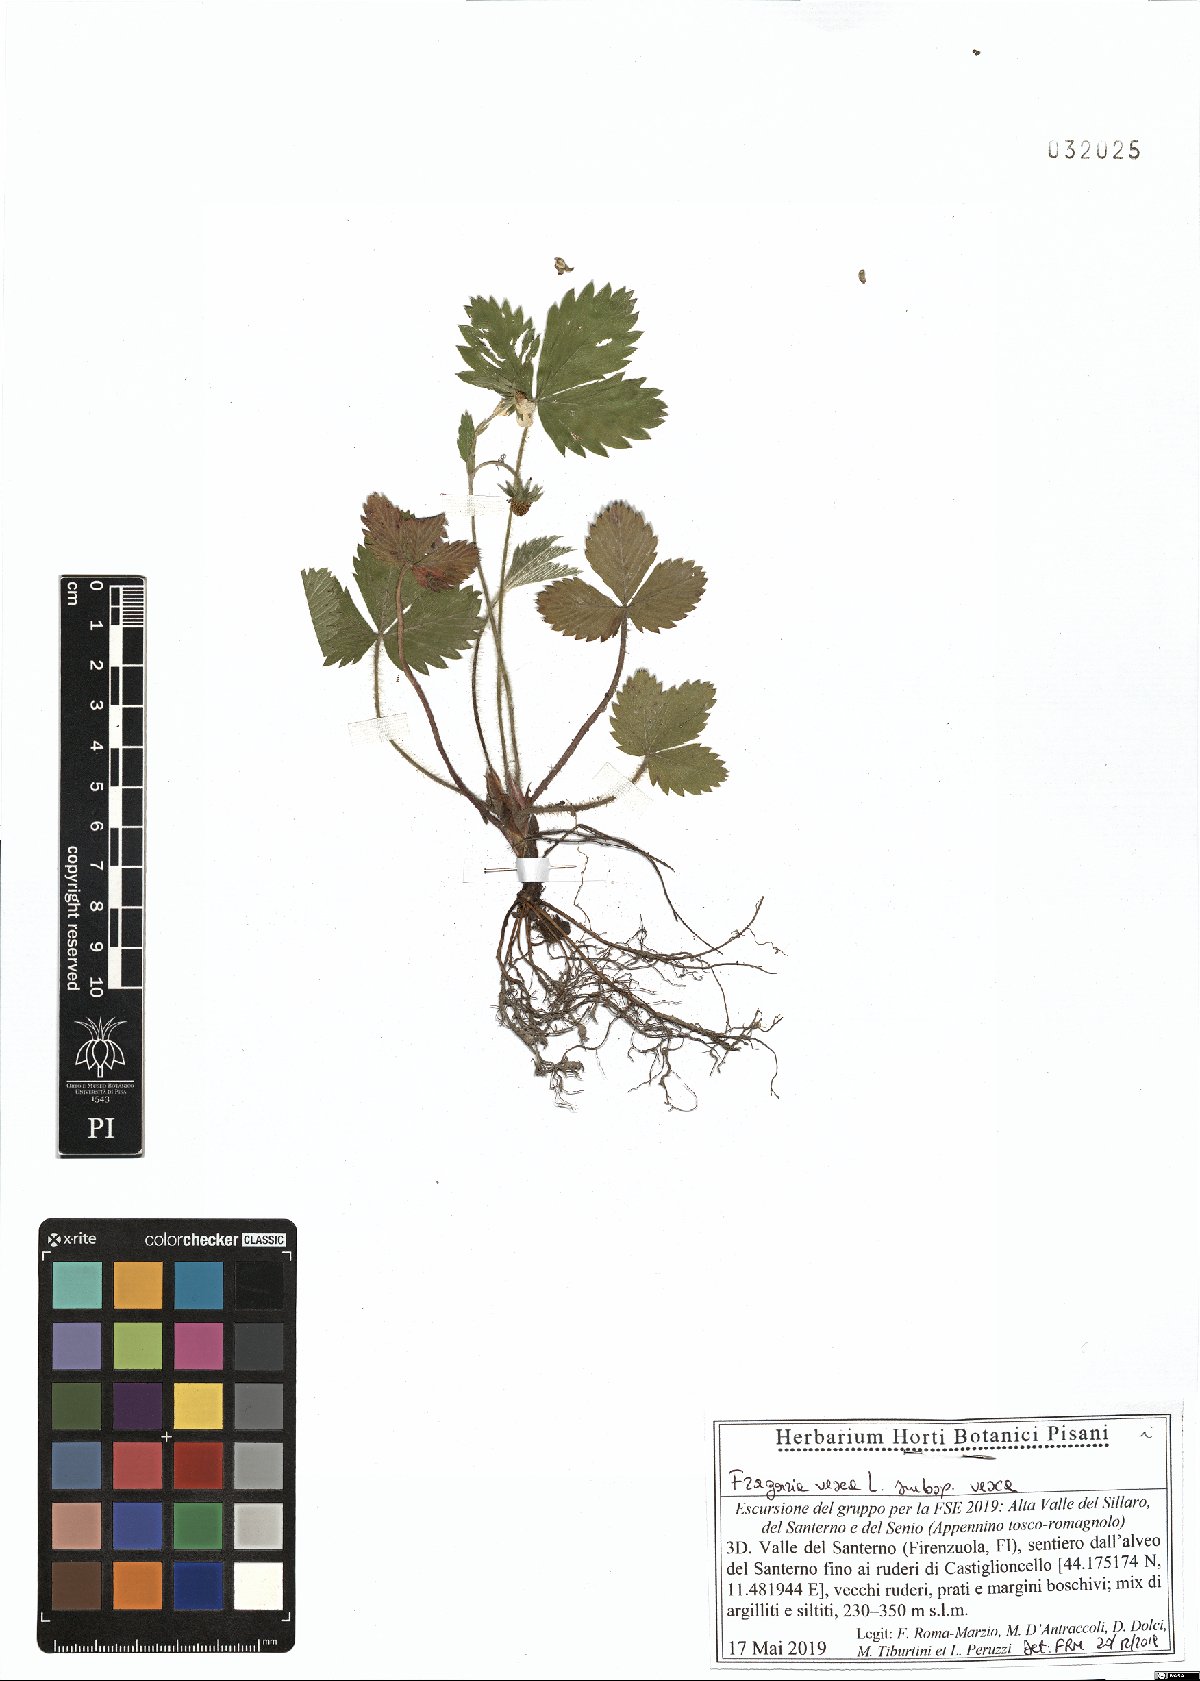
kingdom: Plantae
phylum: Tracheophyta
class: Magnoliopsida
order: Rosales
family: Rosaceae
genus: Fragaria
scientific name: Fragaria vesca
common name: Wild strawberry
